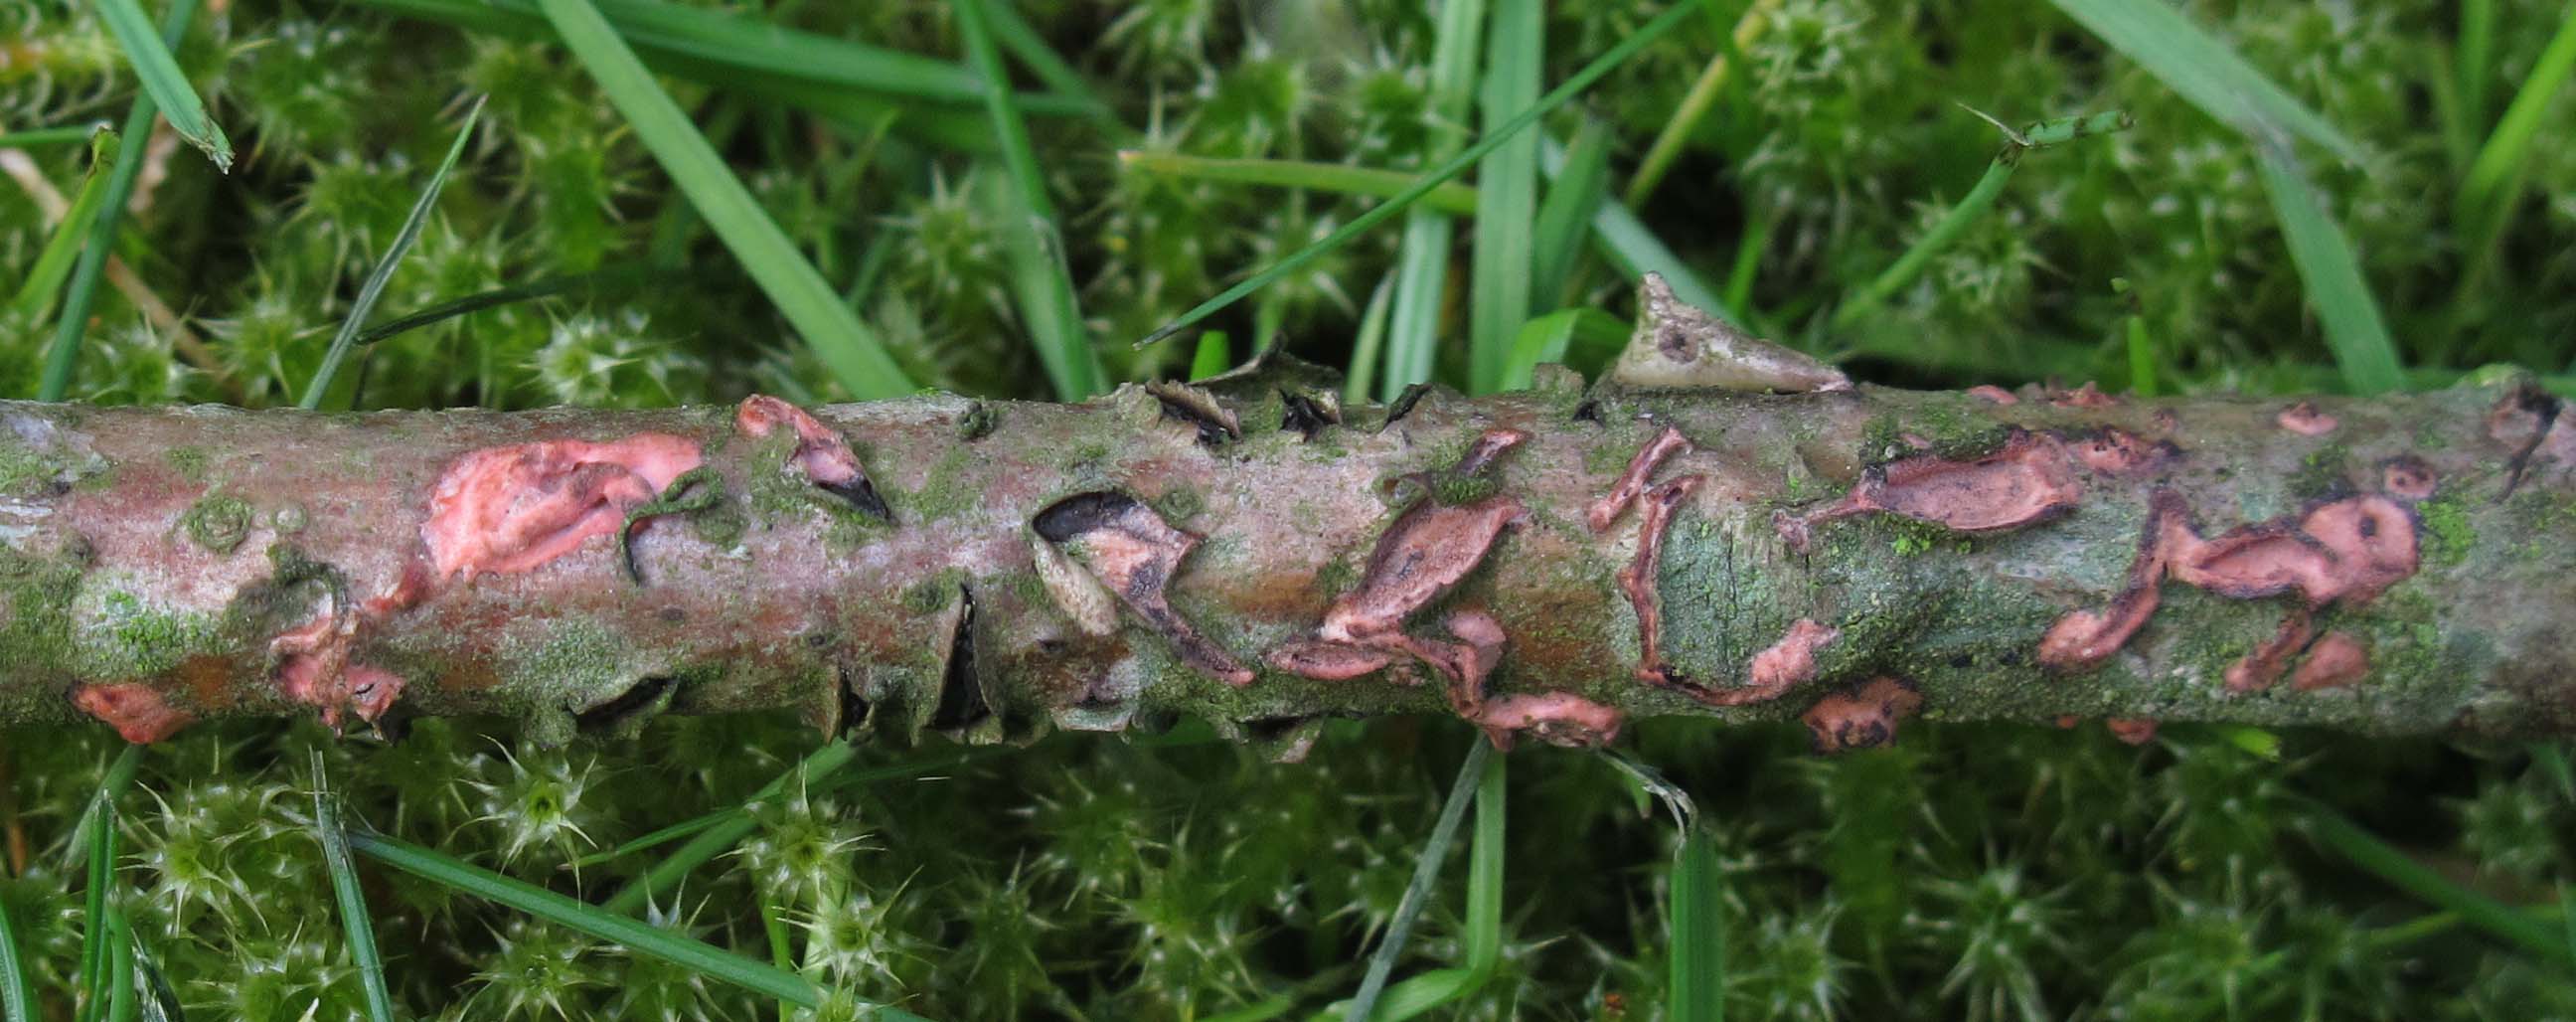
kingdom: Fungi
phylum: Basidiomycota
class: Agaricomycetes
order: Corticiales
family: Corticiaceae
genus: Marchandiomyces
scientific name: Marchandiomyces aurantioroseus
